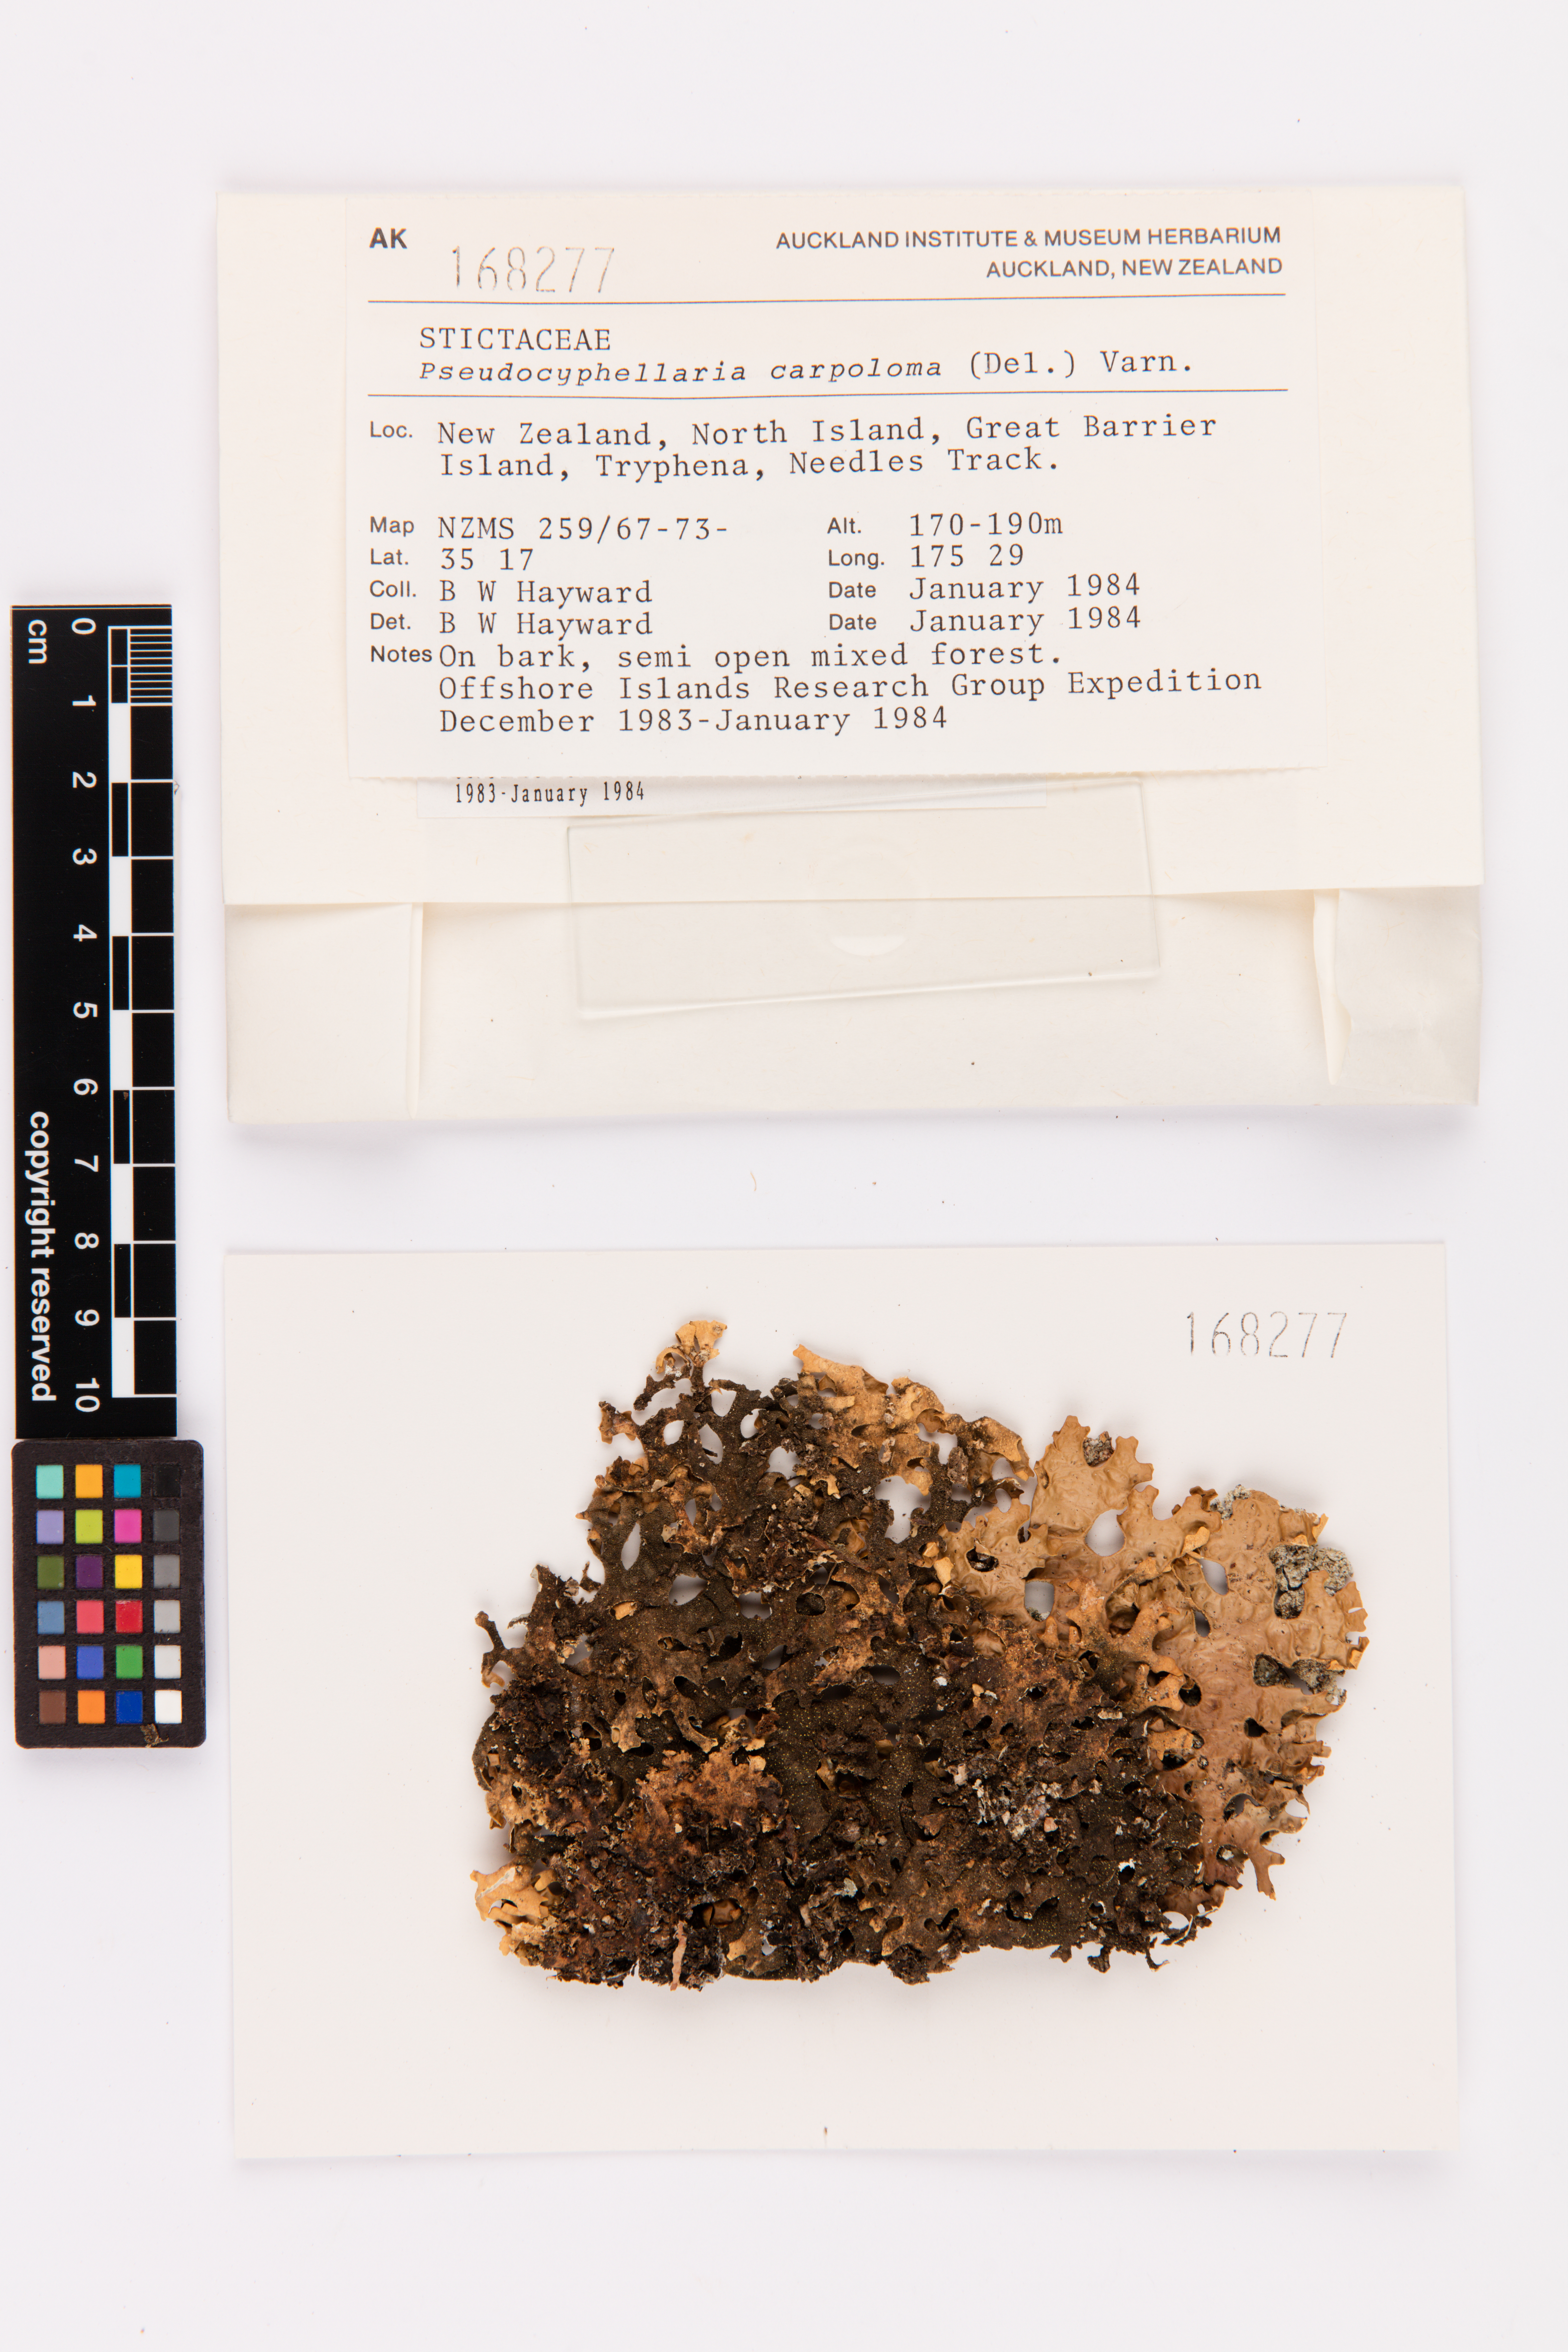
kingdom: Fungi
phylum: Ascomycota
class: Lecanoromycetes
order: Peltigerales
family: Lobariaceae
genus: Pseudocyphellaria
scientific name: Pseudocyphellaria carpoloma
